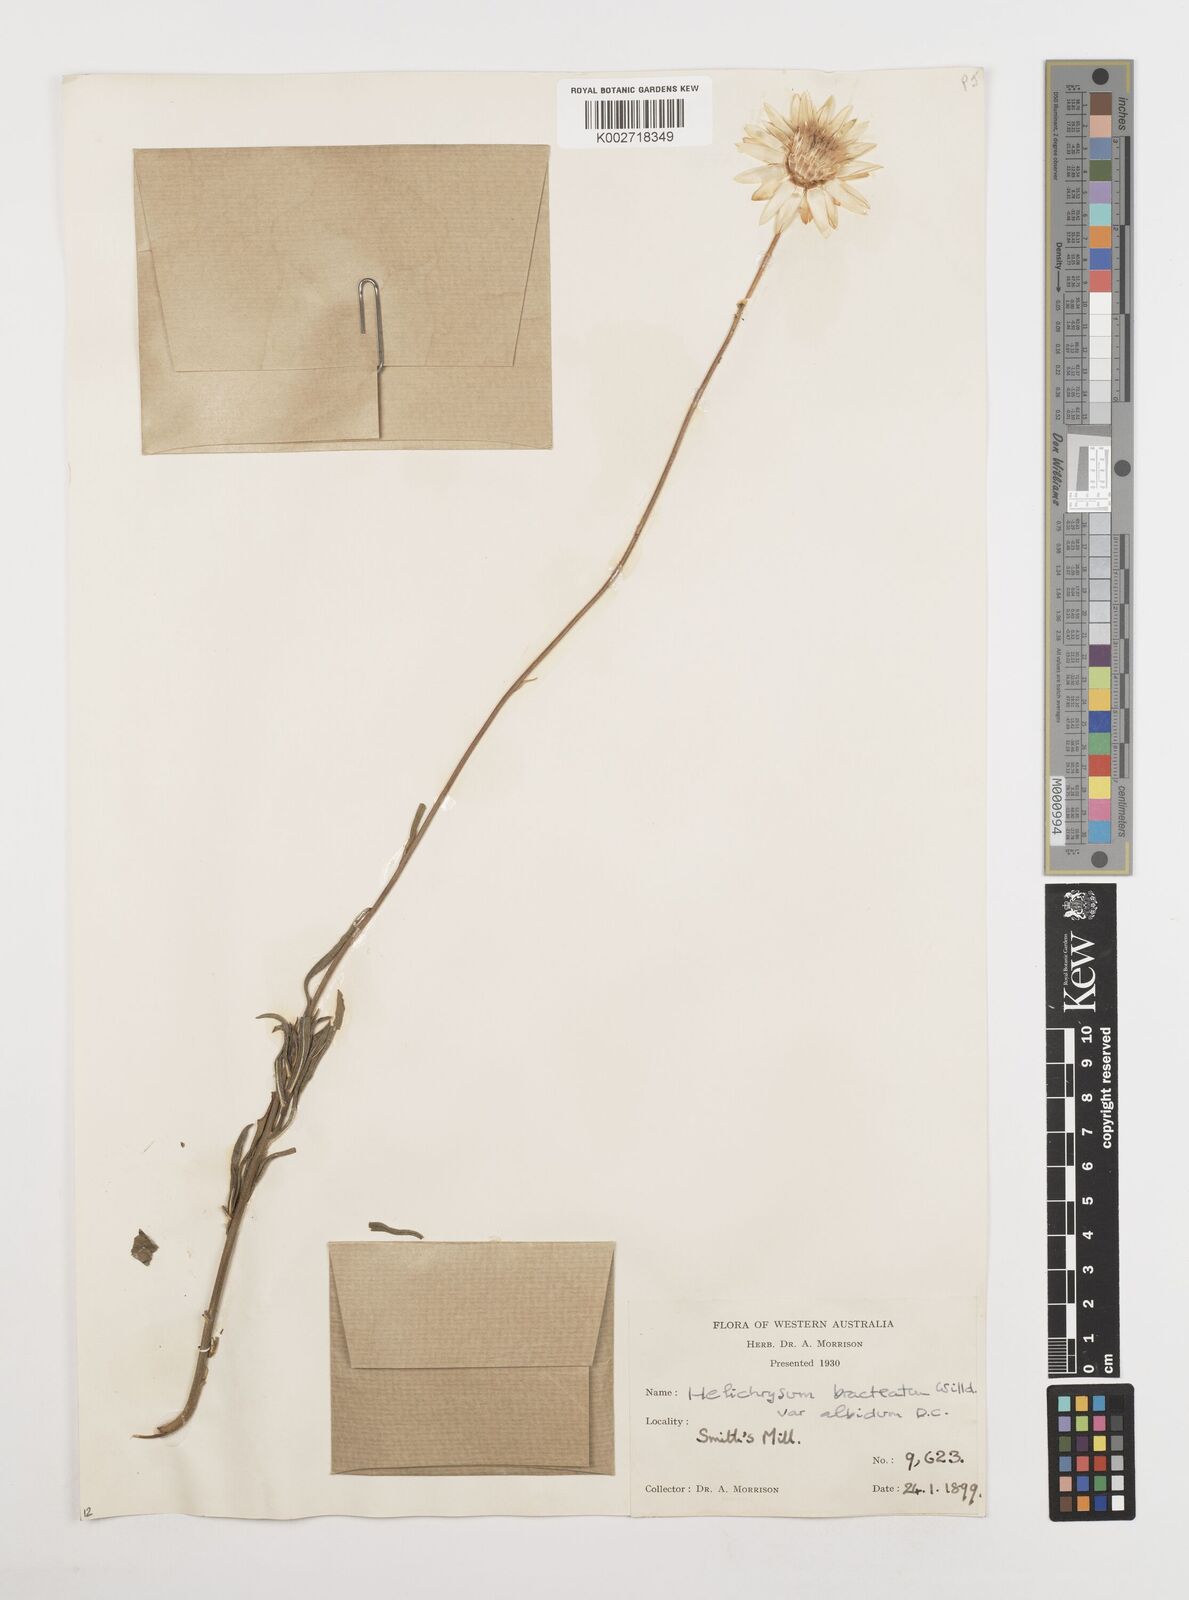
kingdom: Plantae
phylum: Tracheophyta
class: Magnoliopsida
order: Asterales
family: Asteraceae
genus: Xerochrysum
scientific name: Xerochrysum bracteatum
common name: Bracted strawflower
